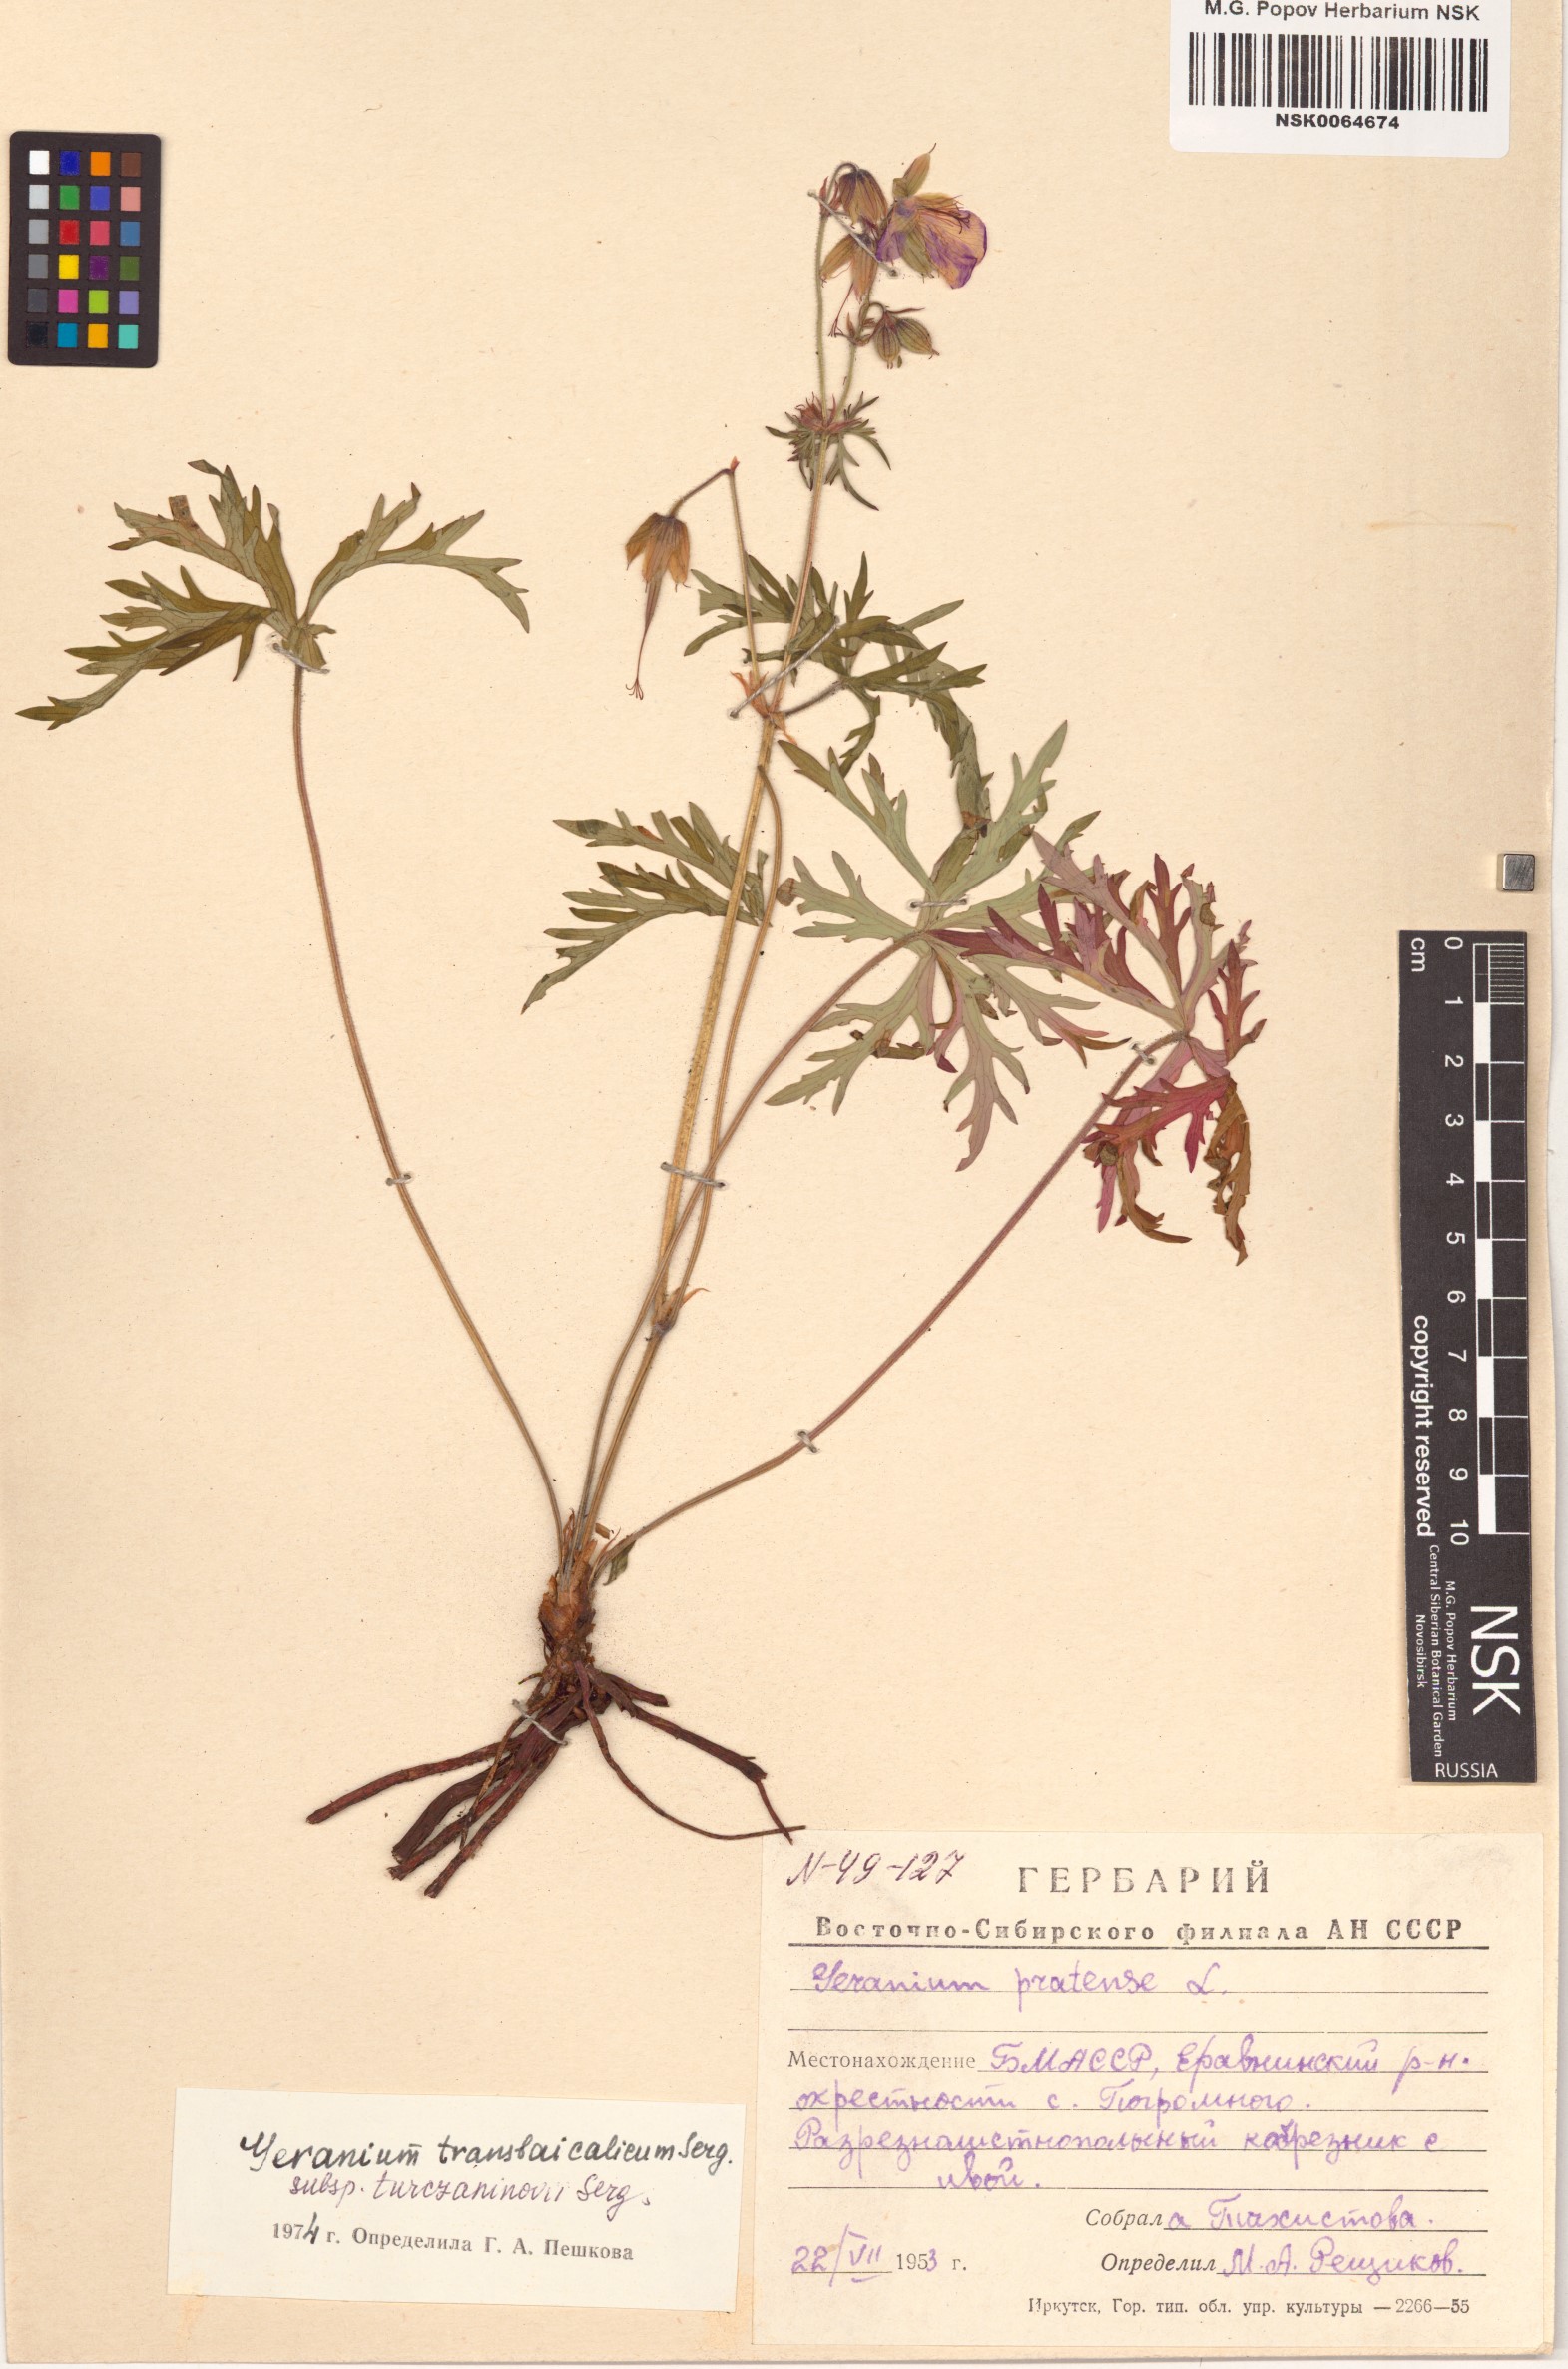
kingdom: Plantae
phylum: Tracheophyta
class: Magnoliopsida
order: Geraniales
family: Geraniaceae
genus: Geranium
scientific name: Geranium pratense
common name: Meadow crane's-bill
